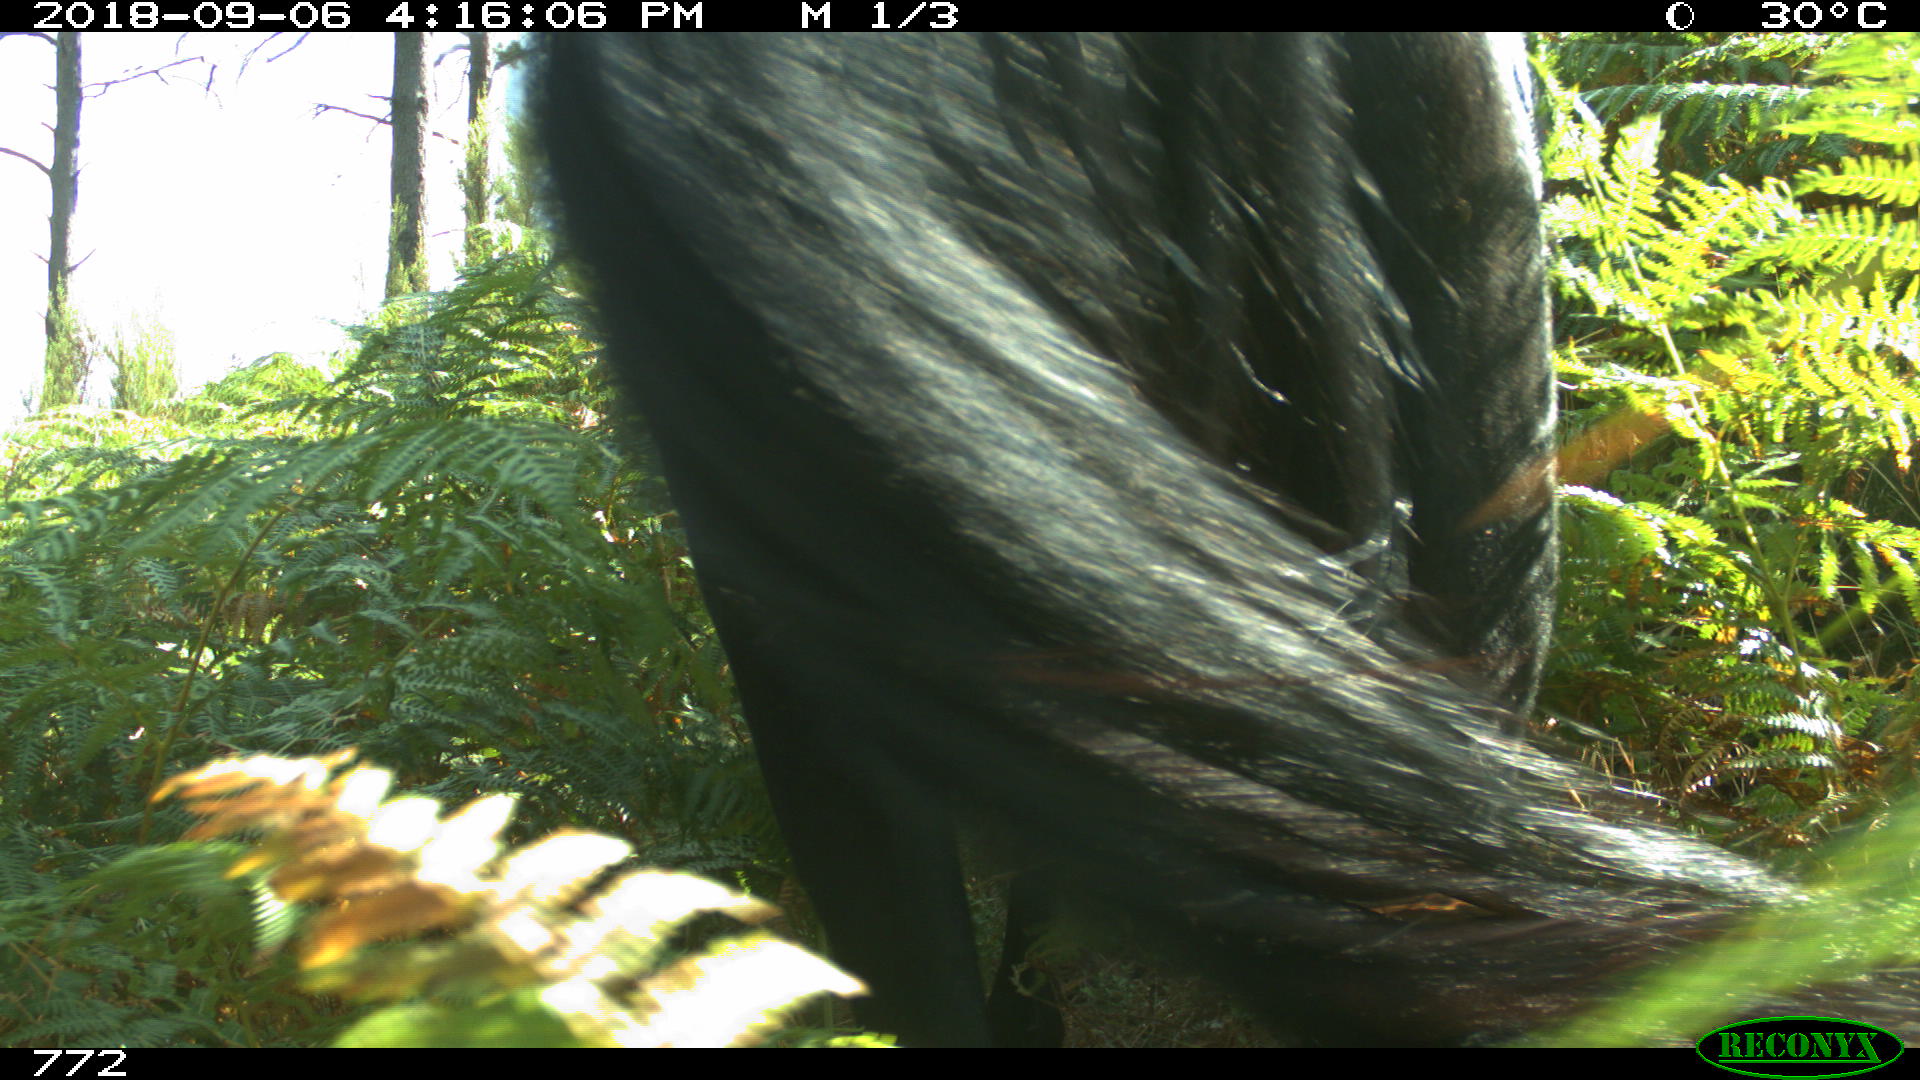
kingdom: Animalia
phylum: Chordata
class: Mammalia
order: Perissodactyla
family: Equidae
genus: Equus
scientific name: Equus caballus
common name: Horse
